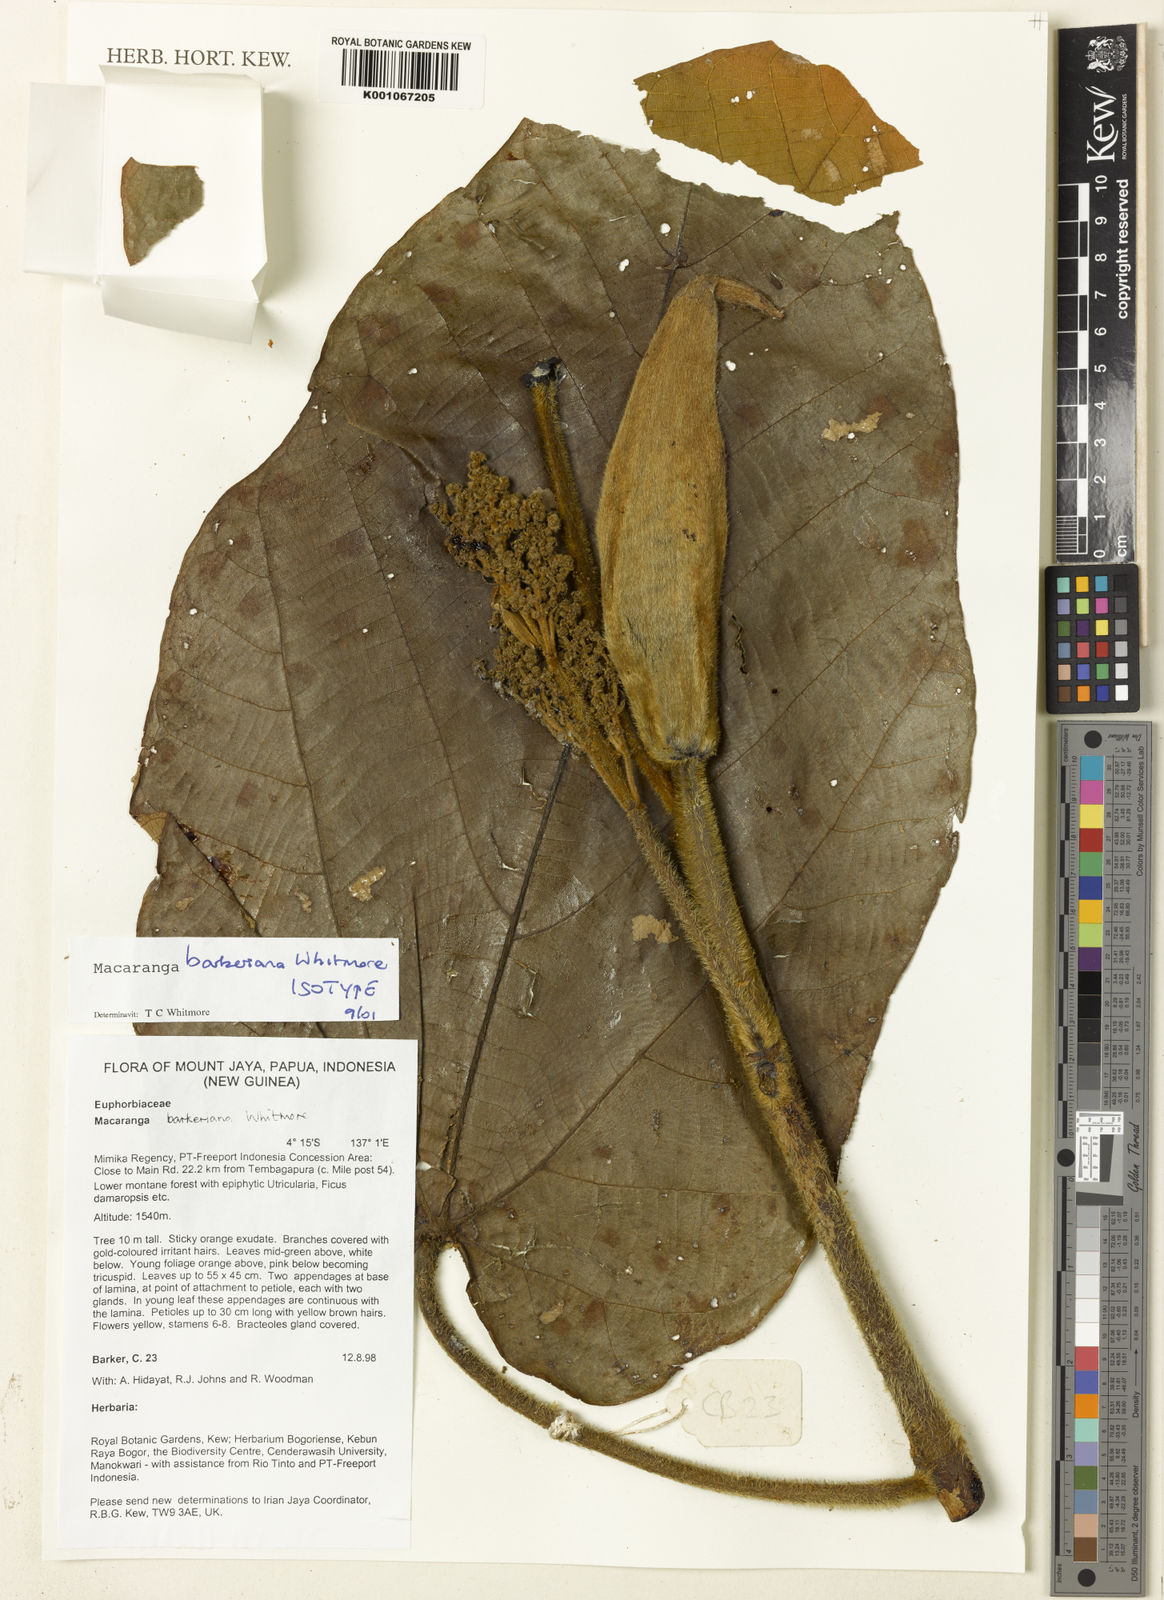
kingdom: Plantae
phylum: Tracheophyta
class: Magnoliopsida
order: Malpighiales
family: Euphorbiaceae
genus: Macaranga
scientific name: Macaranga barkeriana
